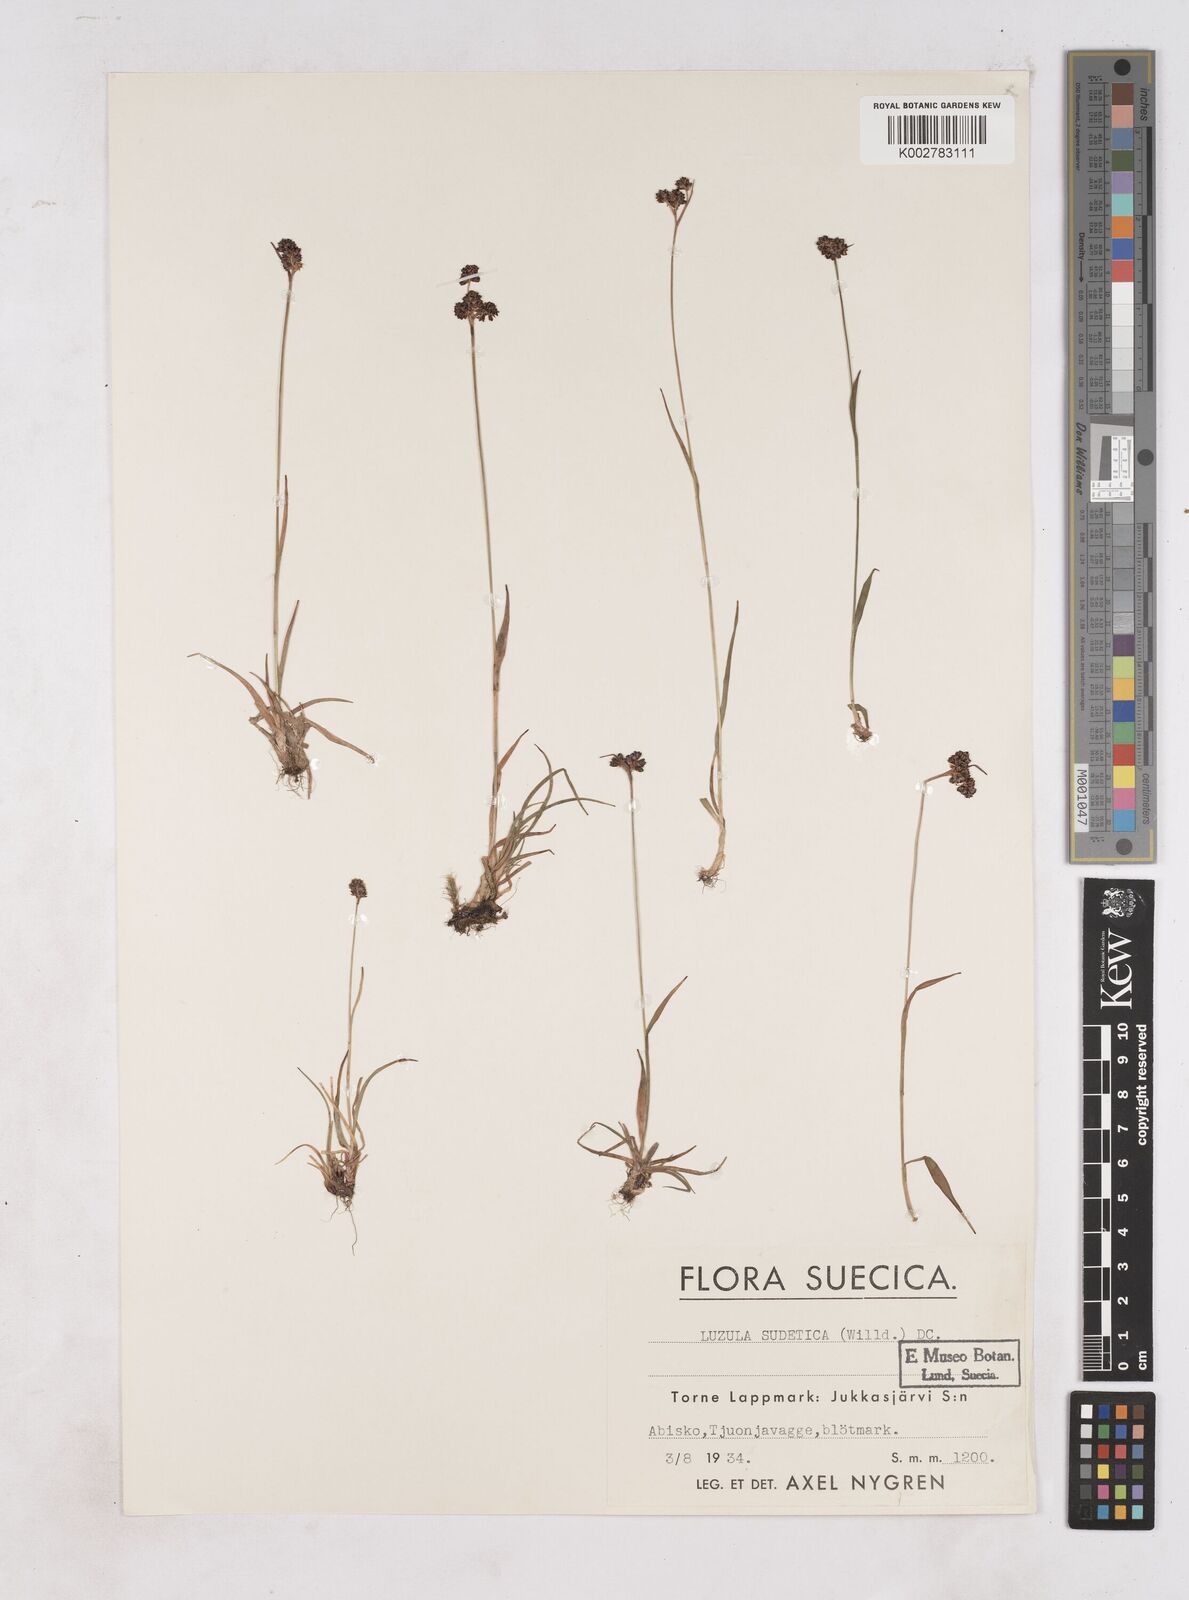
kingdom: Plantae
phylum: Tracheophyta
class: Liliopsida
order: Poales
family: Juncaceae
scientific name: Juncaceae
